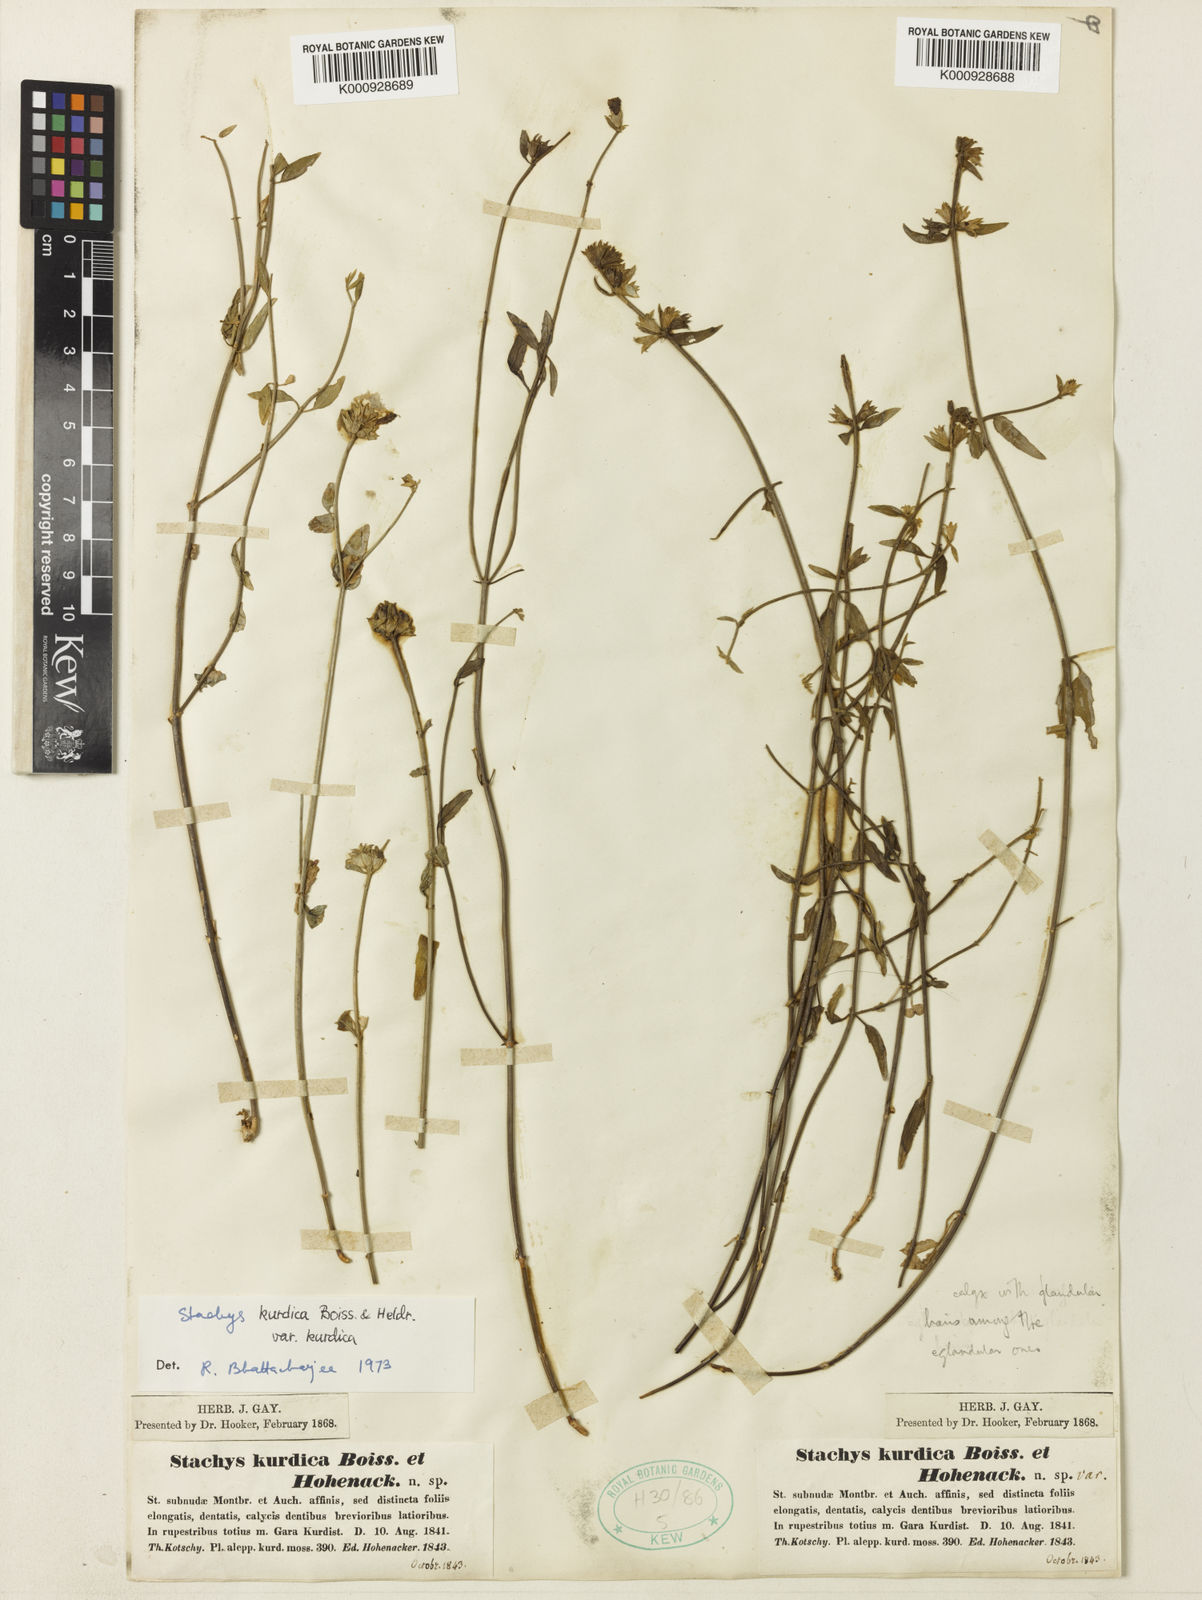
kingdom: Plantae
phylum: Tracheophyta
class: Magnoliopsida
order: Lamiales
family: Lamiaceae
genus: Stachys
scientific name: Stachys kurdica
